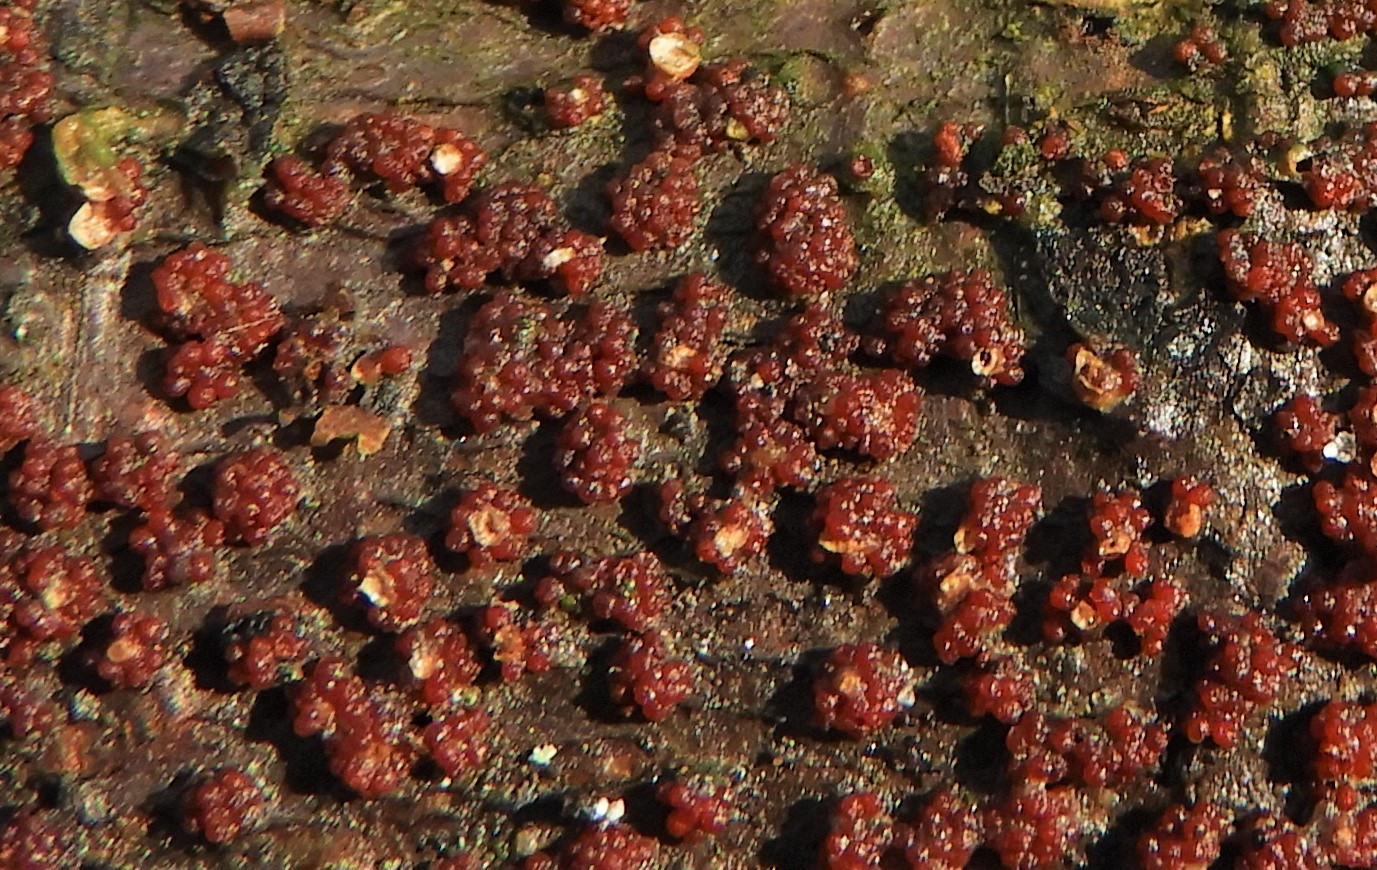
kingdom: Fungi
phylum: Ascomycota
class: Sordariomycetes
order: Hypocreales
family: Nectriaceae
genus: Nectria
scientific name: Nectria cinnabarina
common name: almindelig cinnobersvamp
